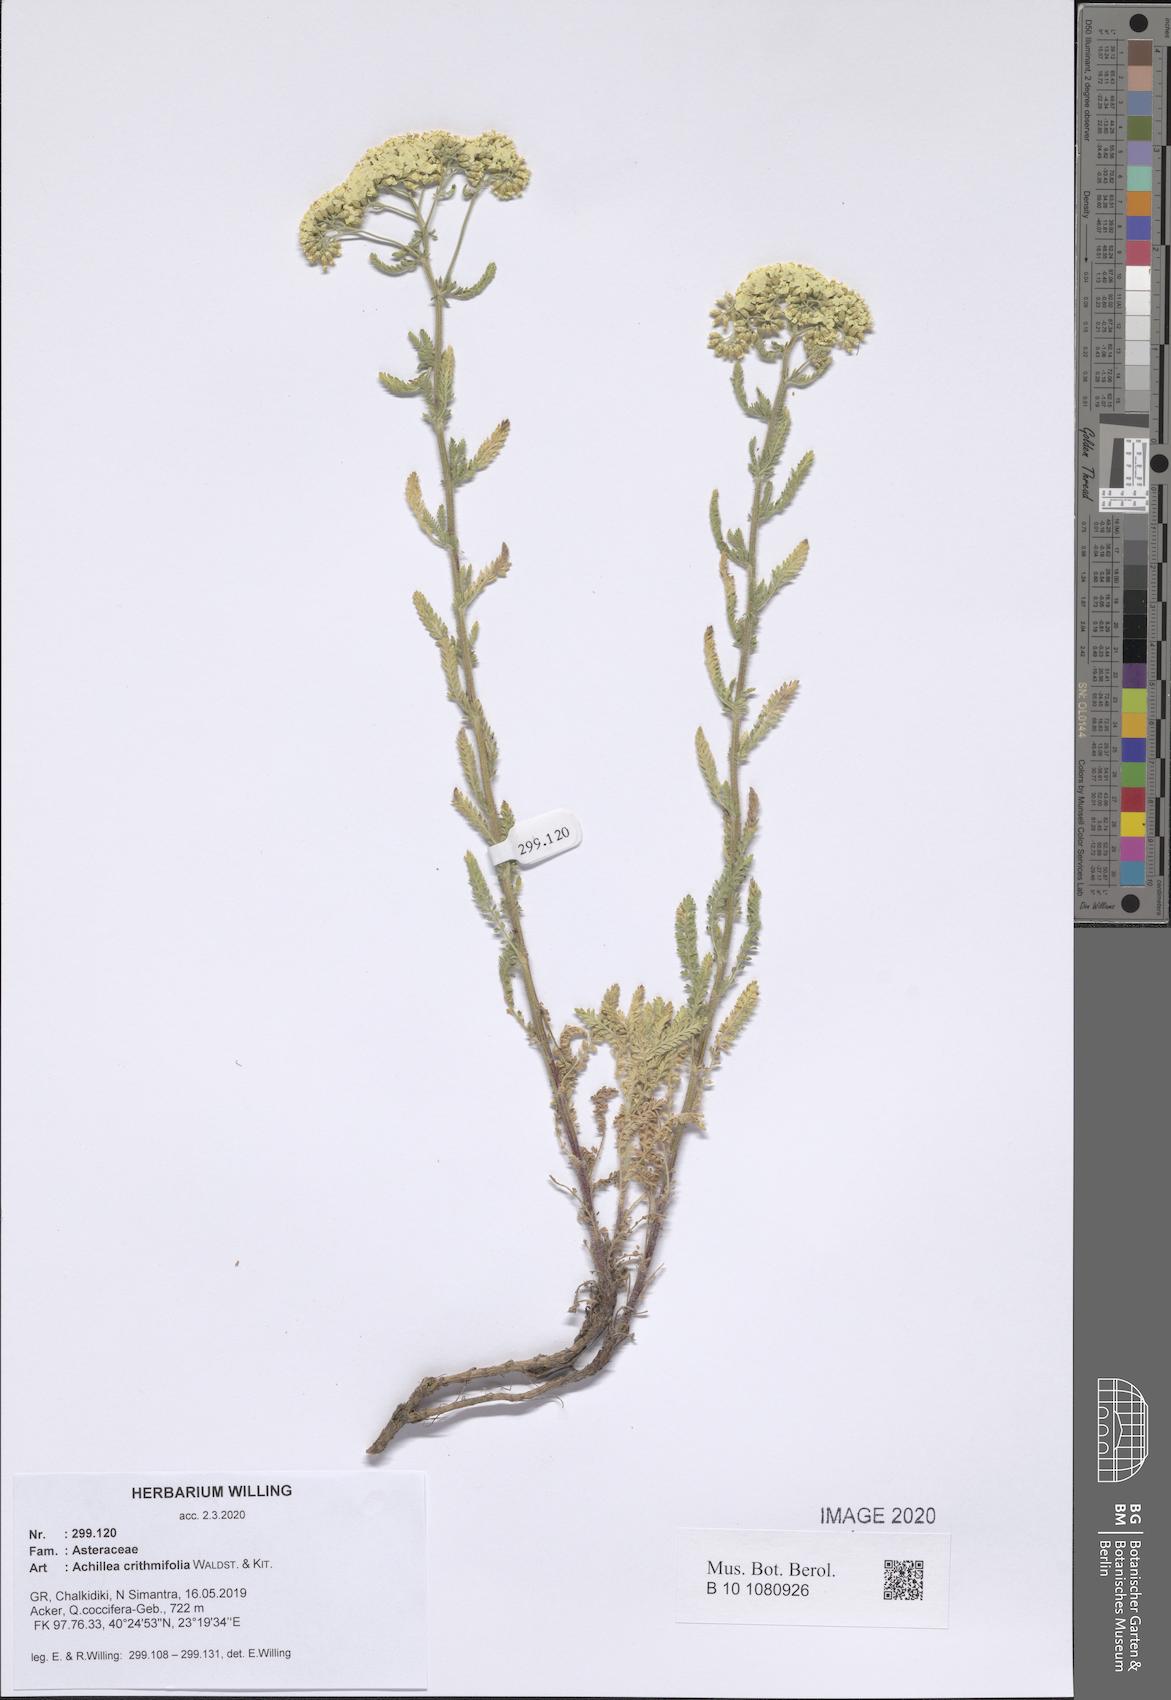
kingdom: Plantae
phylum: Tracheophyta
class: Magnoliopsida
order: Asterales
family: Asteraceae
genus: Achillea
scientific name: Achillea crithmifolia
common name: Yarrow
